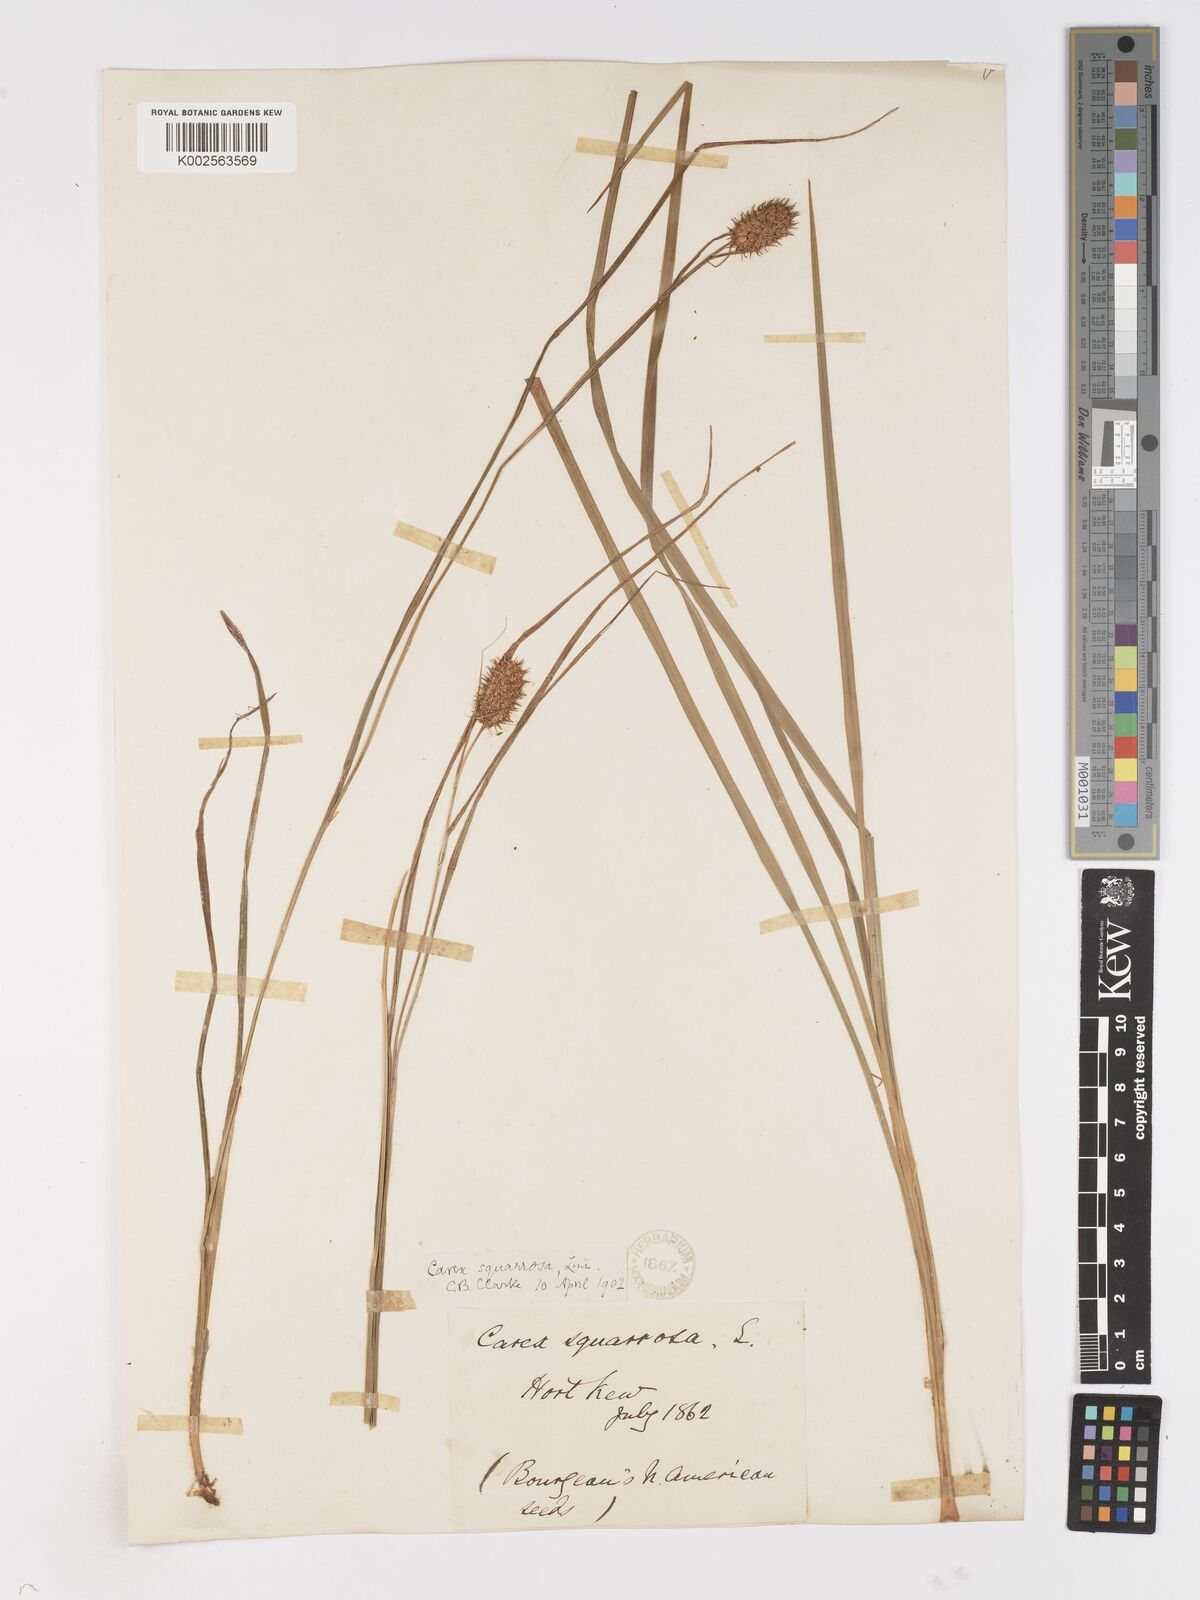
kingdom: Plantae
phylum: Tracheophyta
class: Liliopsida
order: Poales
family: Cyperaceae
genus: Carex
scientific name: Carex squarrosa
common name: Narrow-leaved cattail sedge
